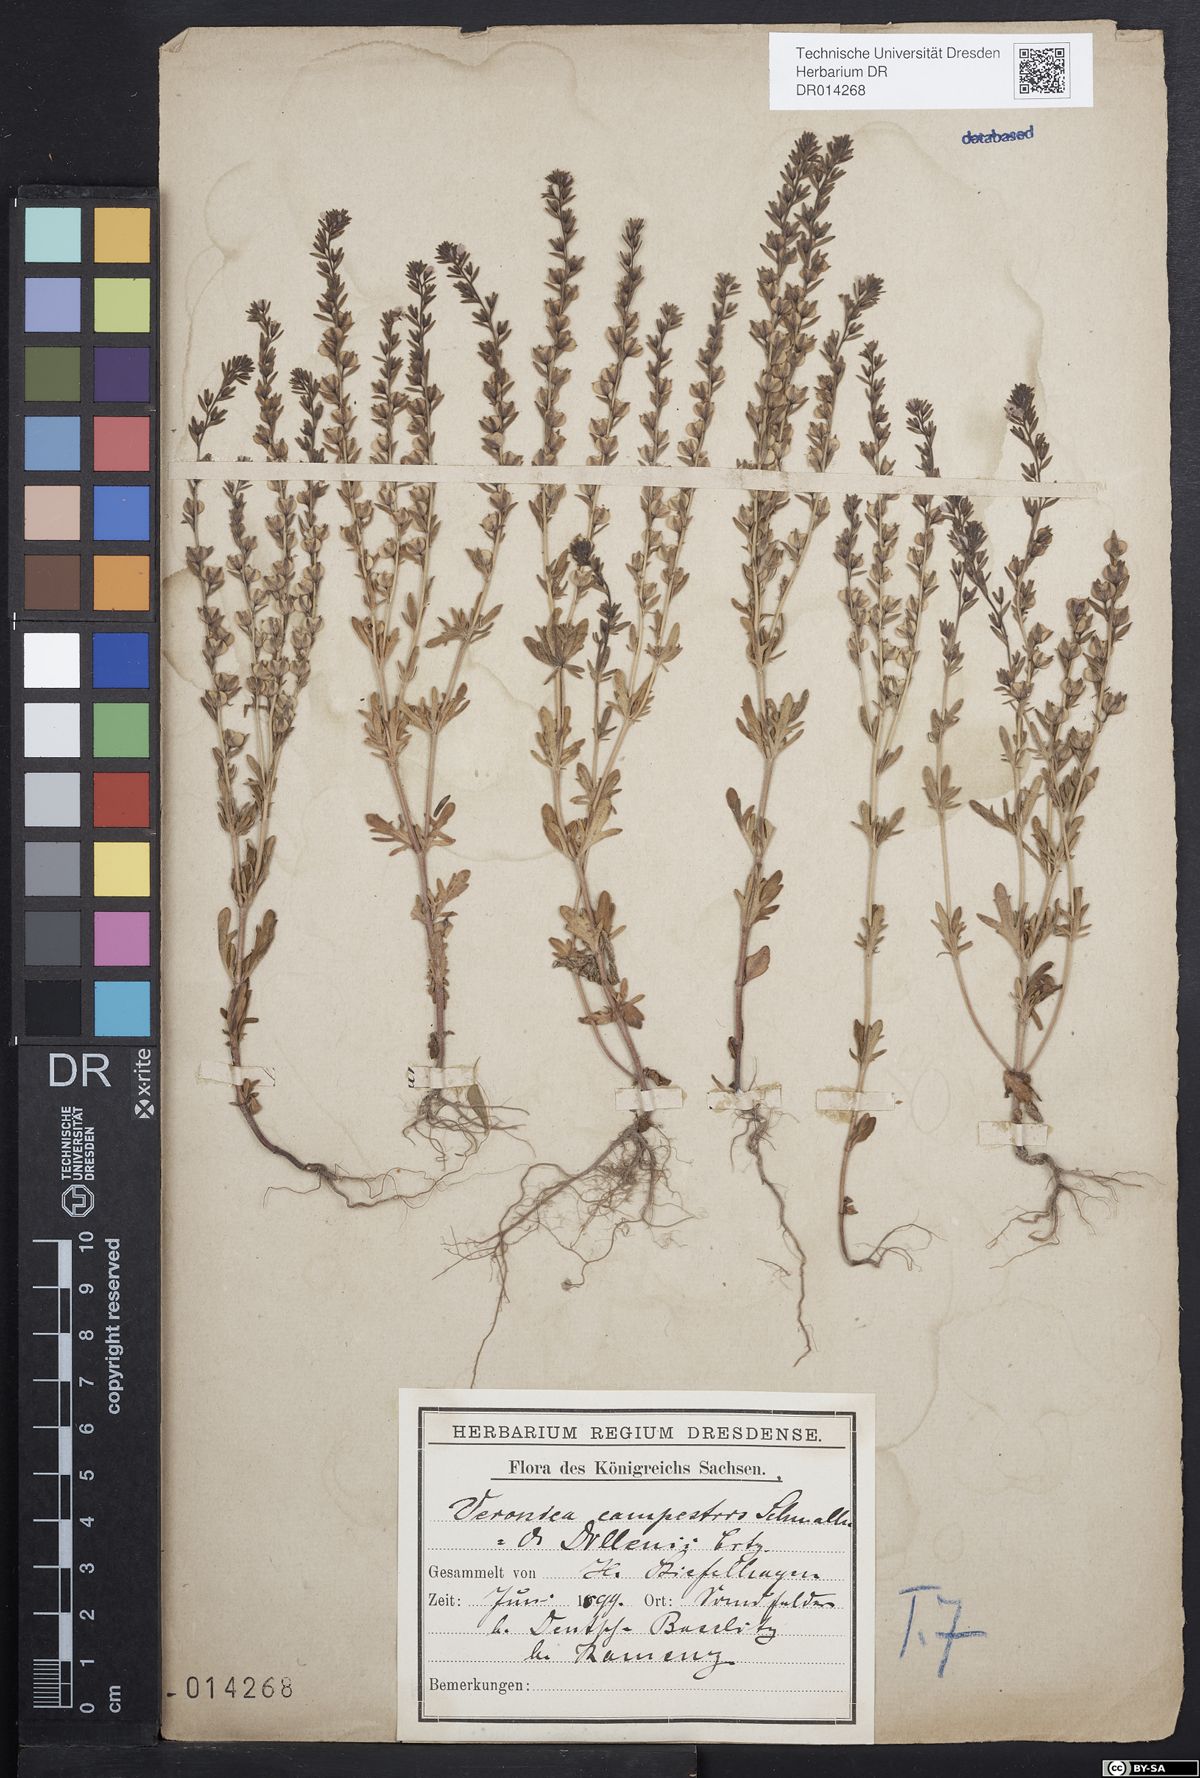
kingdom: Plantae
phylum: Tracheophyta
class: Magnoliopsida
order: Lamiales
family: Plantaginaceae
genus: Veronica
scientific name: Veronica dillenii
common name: Dillenius' speedwell
